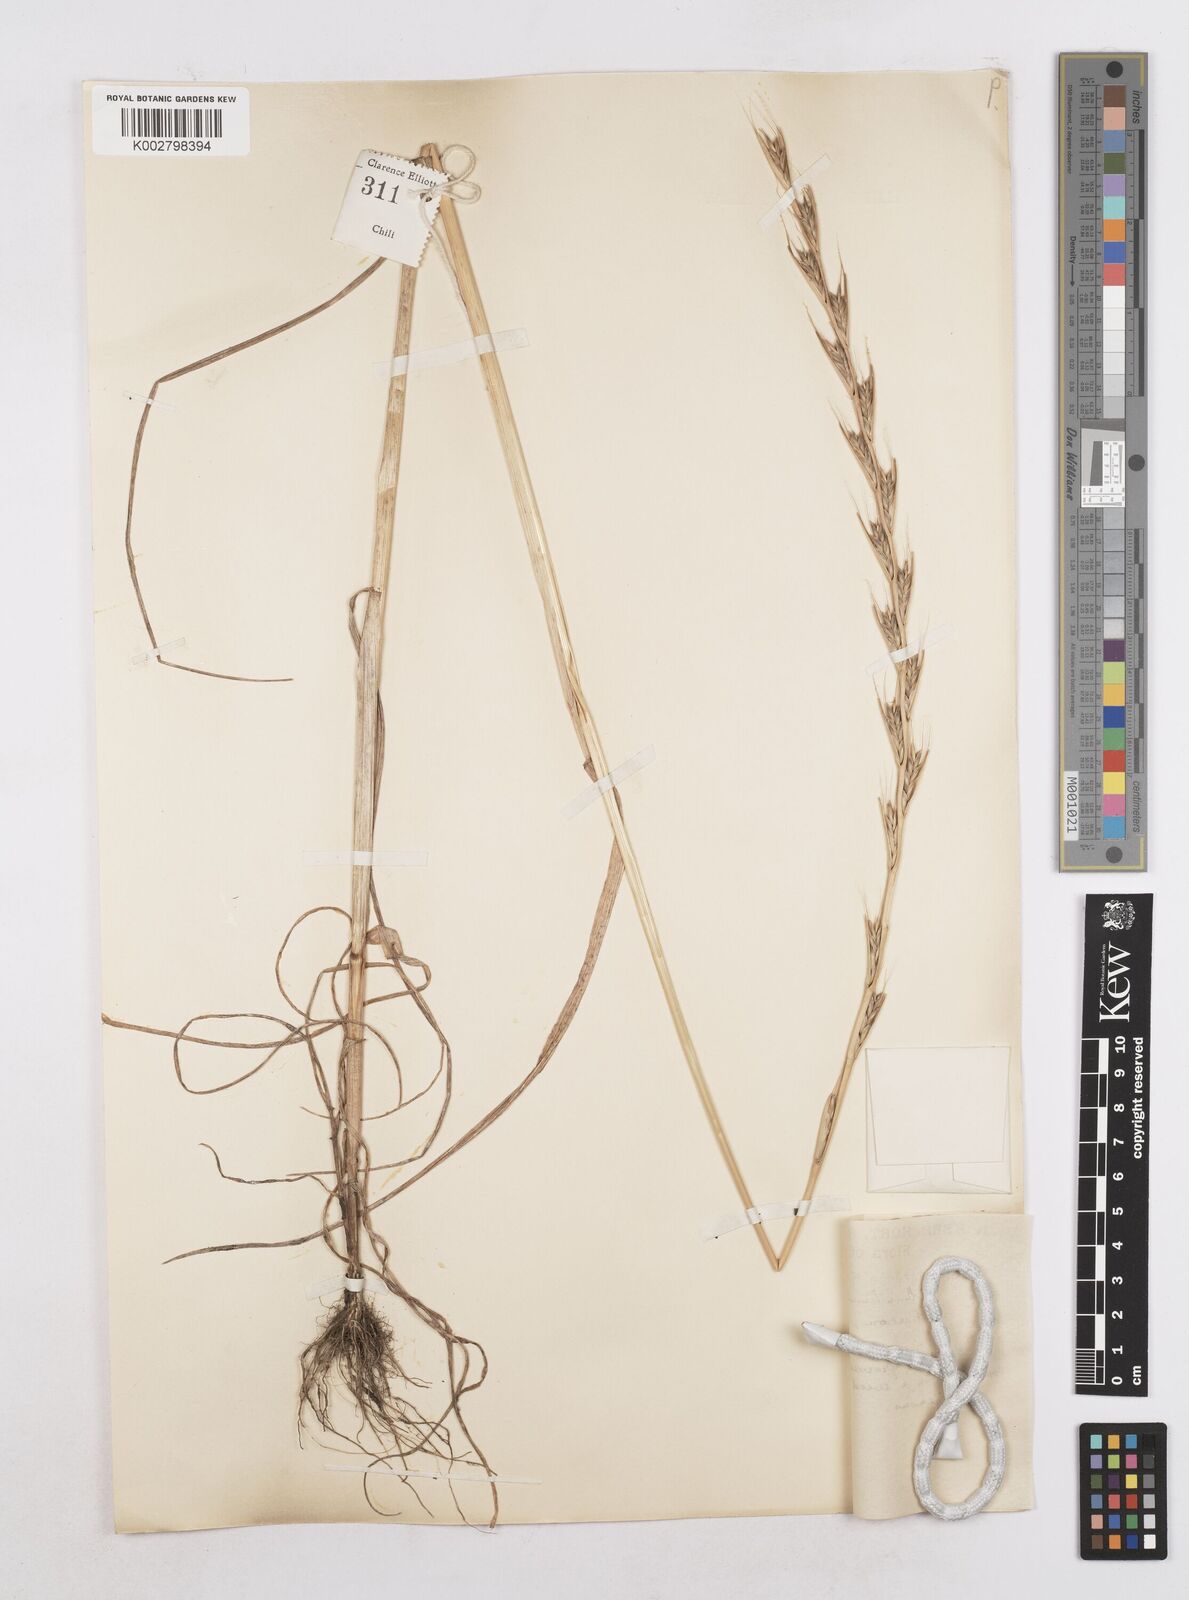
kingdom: Plantae
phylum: Tracheophyta
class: Liliopsida
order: Poales
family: Poaceae
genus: Lolium
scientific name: Lolium temulentum
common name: Darnel
